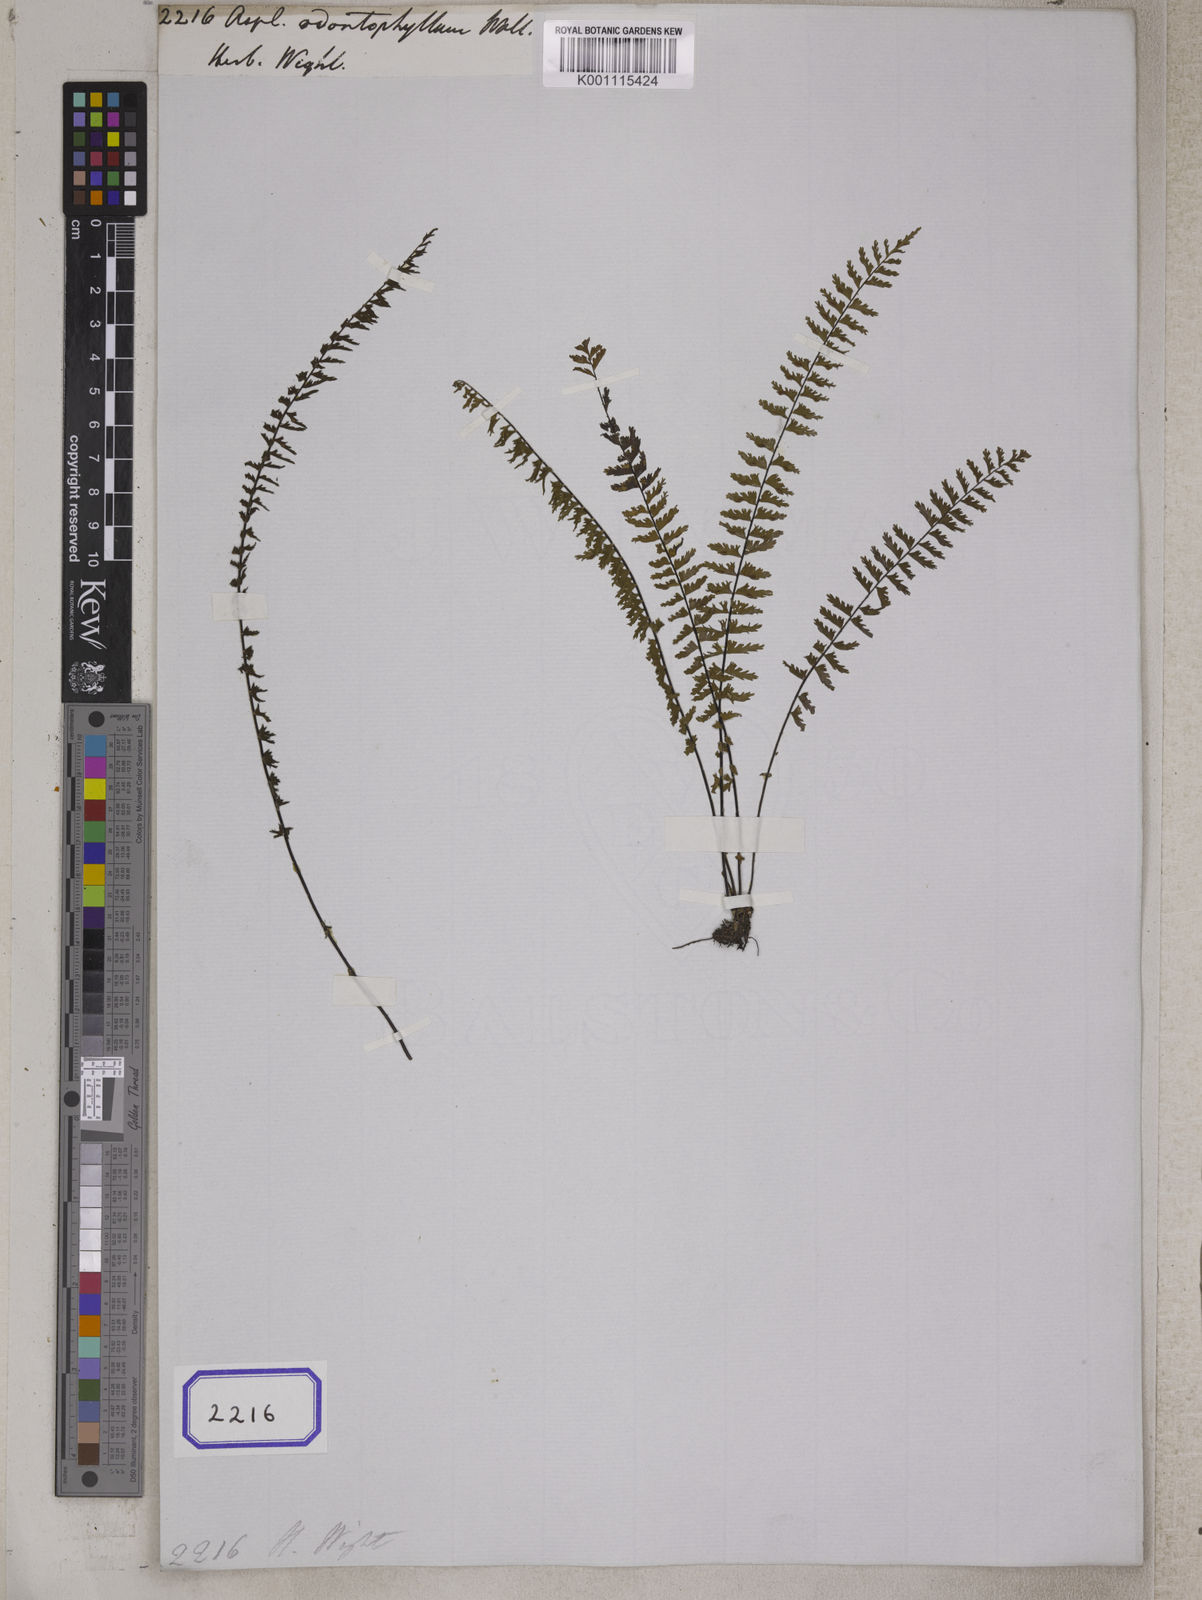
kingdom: Plantae
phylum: Tracheophyta
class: Polypodiopsida
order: Polypodiales
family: Aspleniaceae
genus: Asplenium
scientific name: Asplenium formosum
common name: Showy spleenwort
